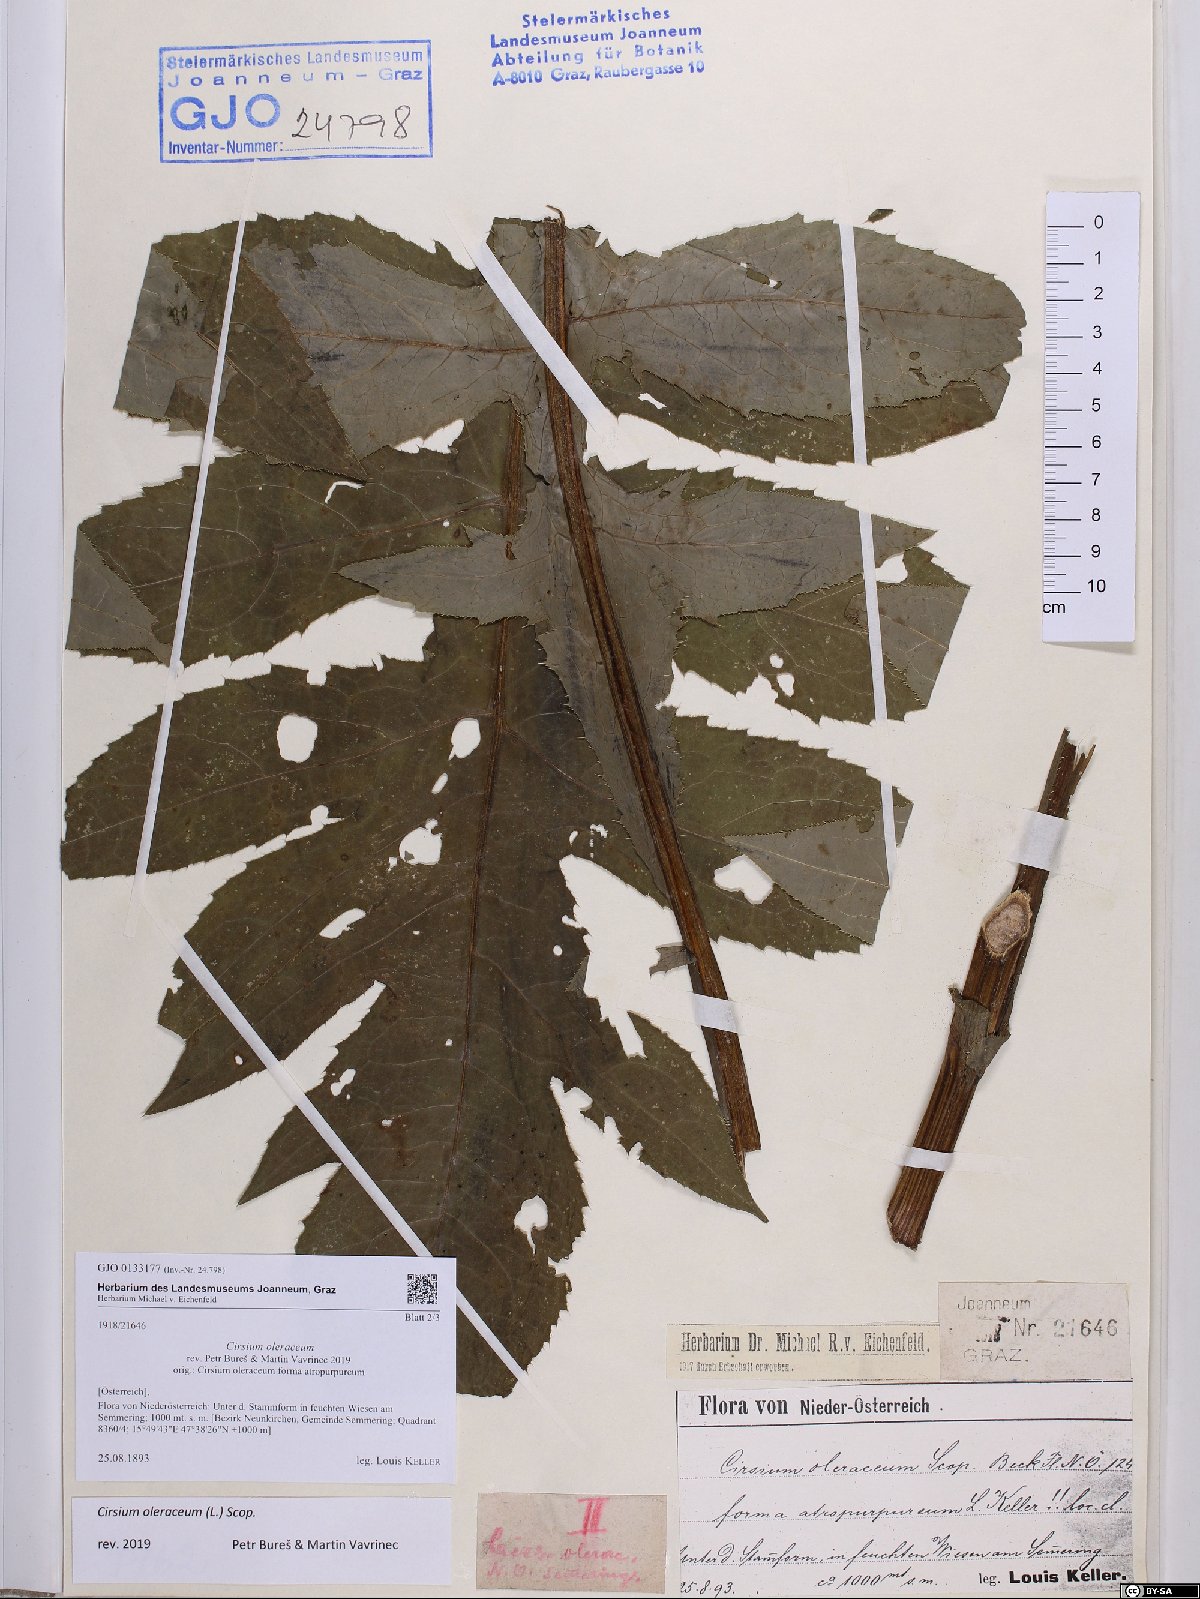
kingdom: Plantae
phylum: Tracheophyta
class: Magnoliopsida
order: Asterales
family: Asteraceae
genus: Cirsium
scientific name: Cirsium oleraceum
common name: Cabbage thistle
